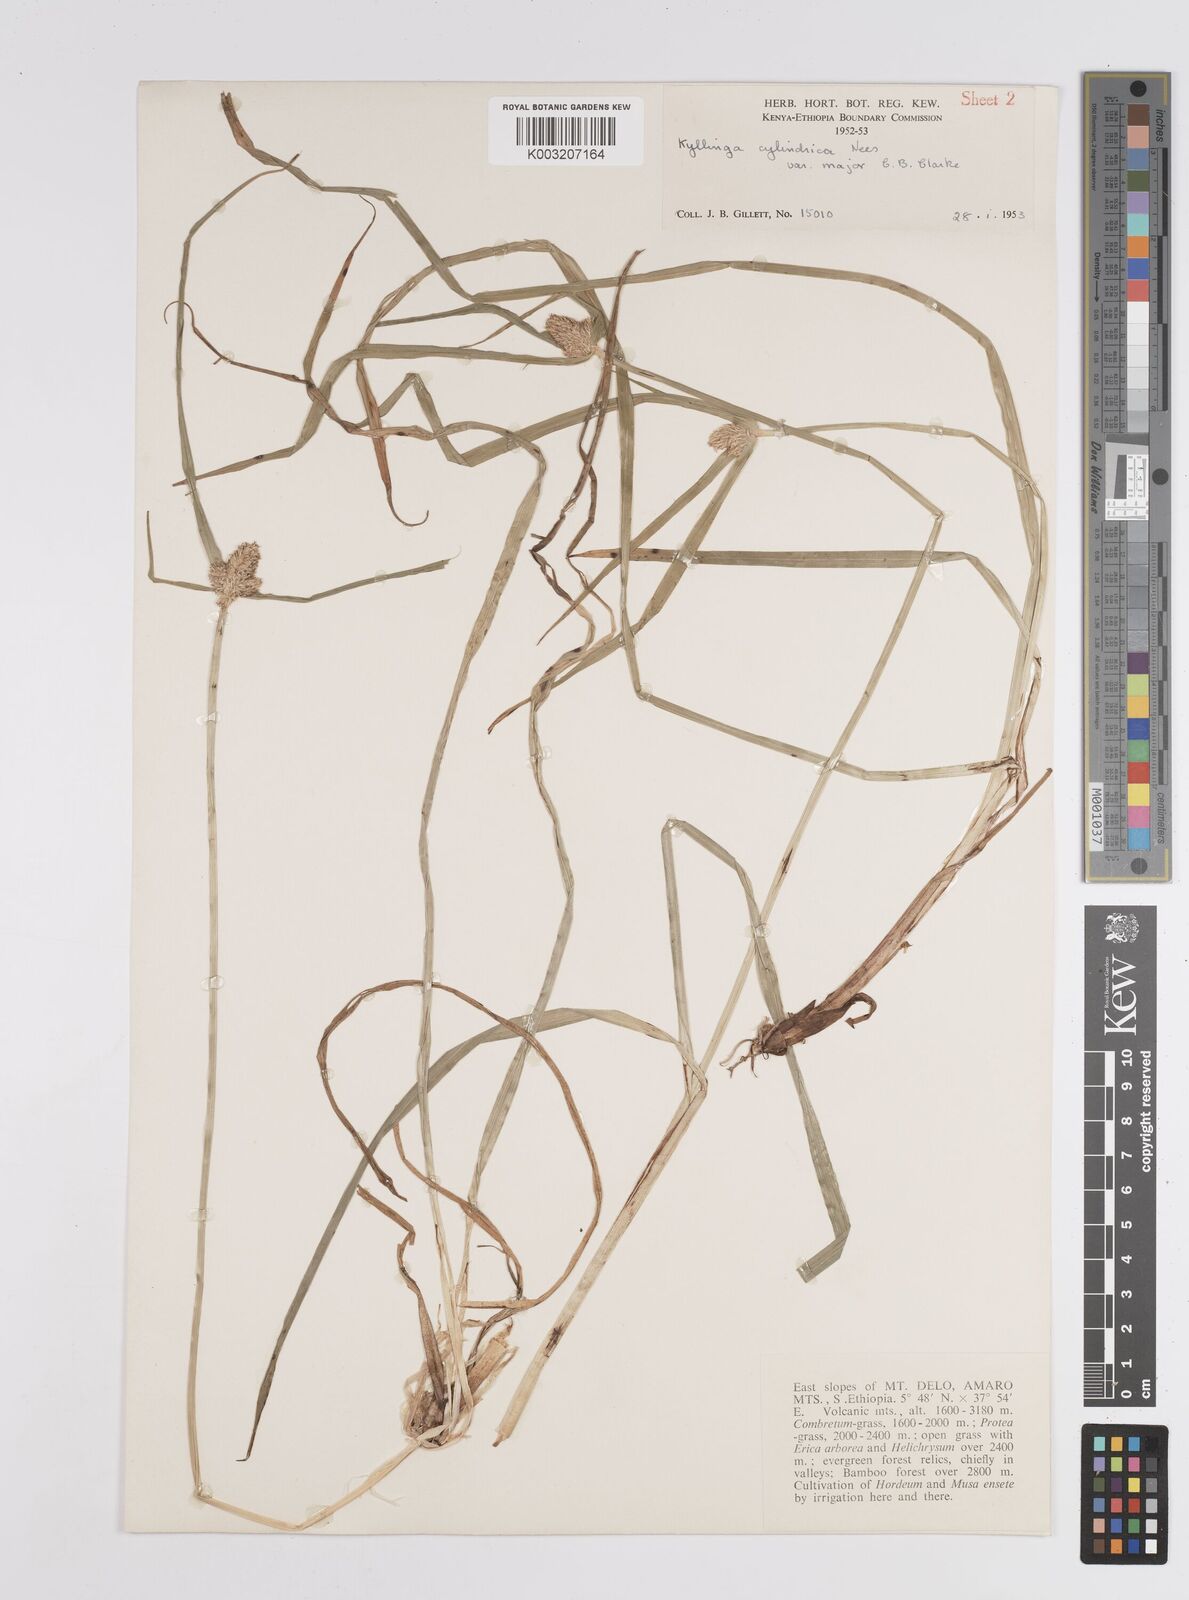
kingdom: Plantae
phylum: Tracheophyta
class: Liliopsida
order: Poales
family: Cyperaceae
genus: Cyperus
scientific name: Cyperus
